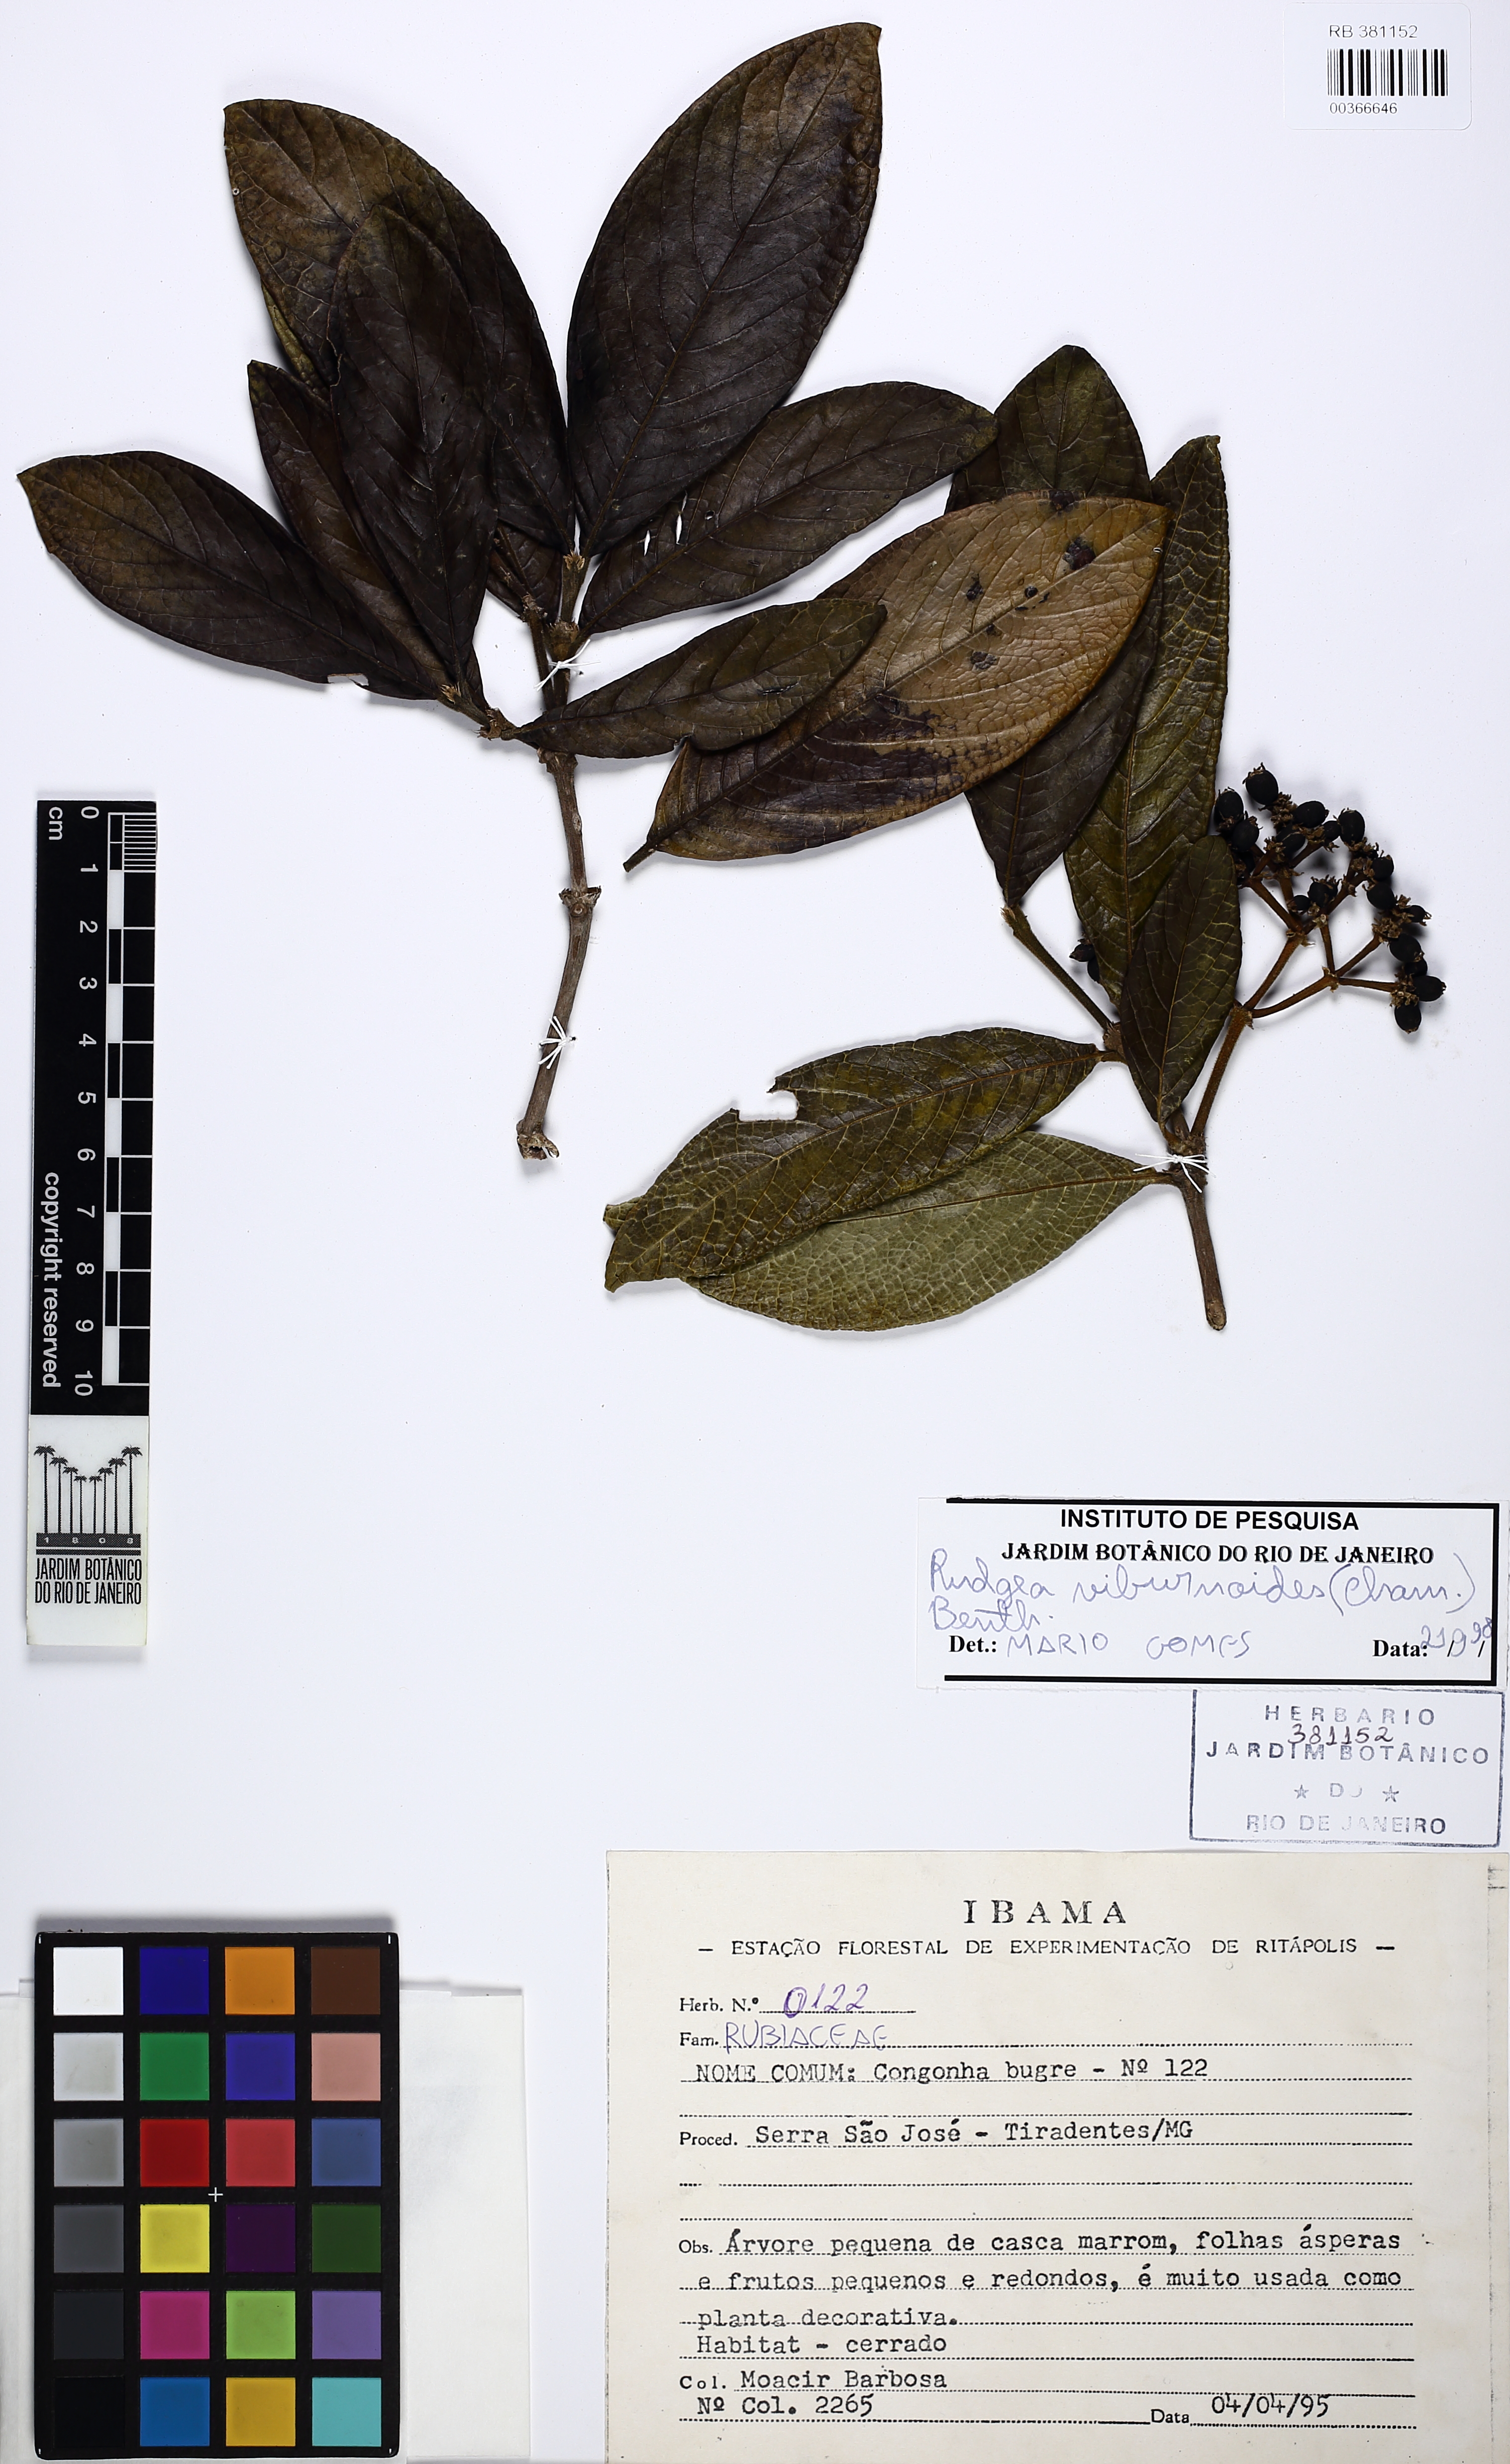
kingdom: Plantae
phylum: Tracheophyta
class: Magnoliopsida
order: Gentianales
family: Rubiaceae
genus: Rudgea
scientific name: Rudgea viburnoides
